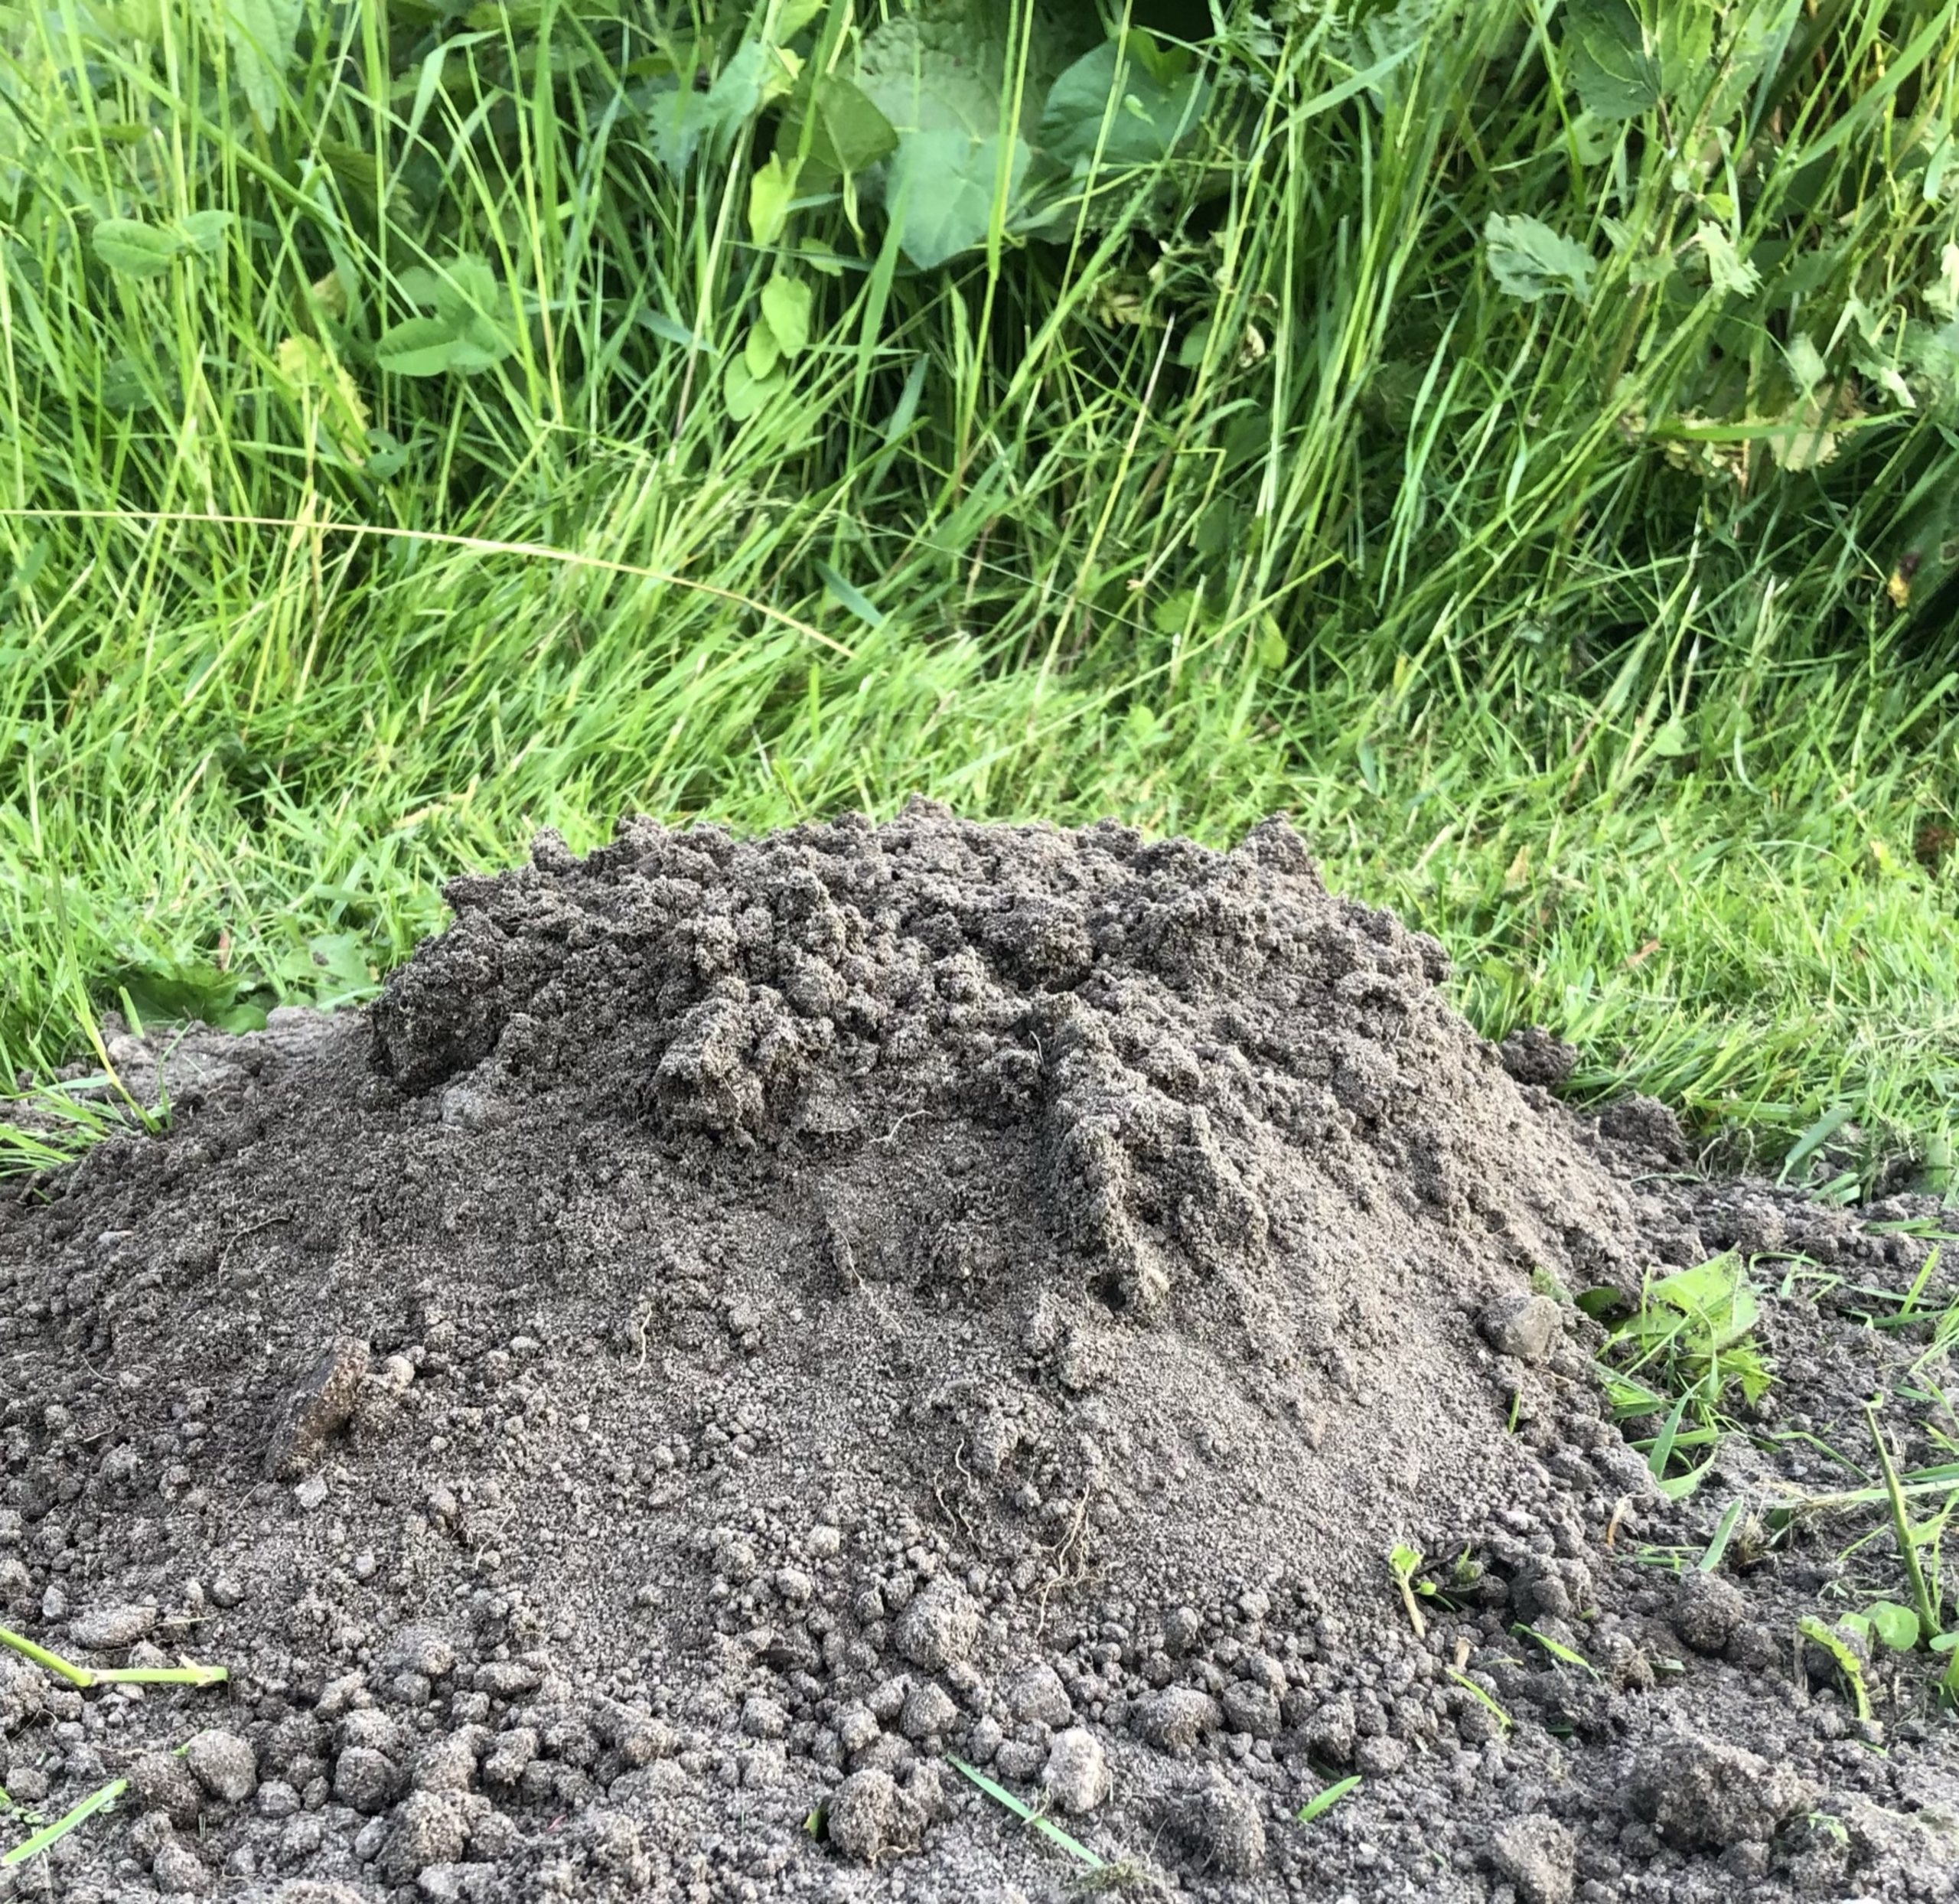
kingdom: Animalia
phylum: Chordata
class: Mammalia
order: Soricomorpha
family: Talpidae
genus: Talpa
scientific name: Talpa europaea
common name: Muldvarp
